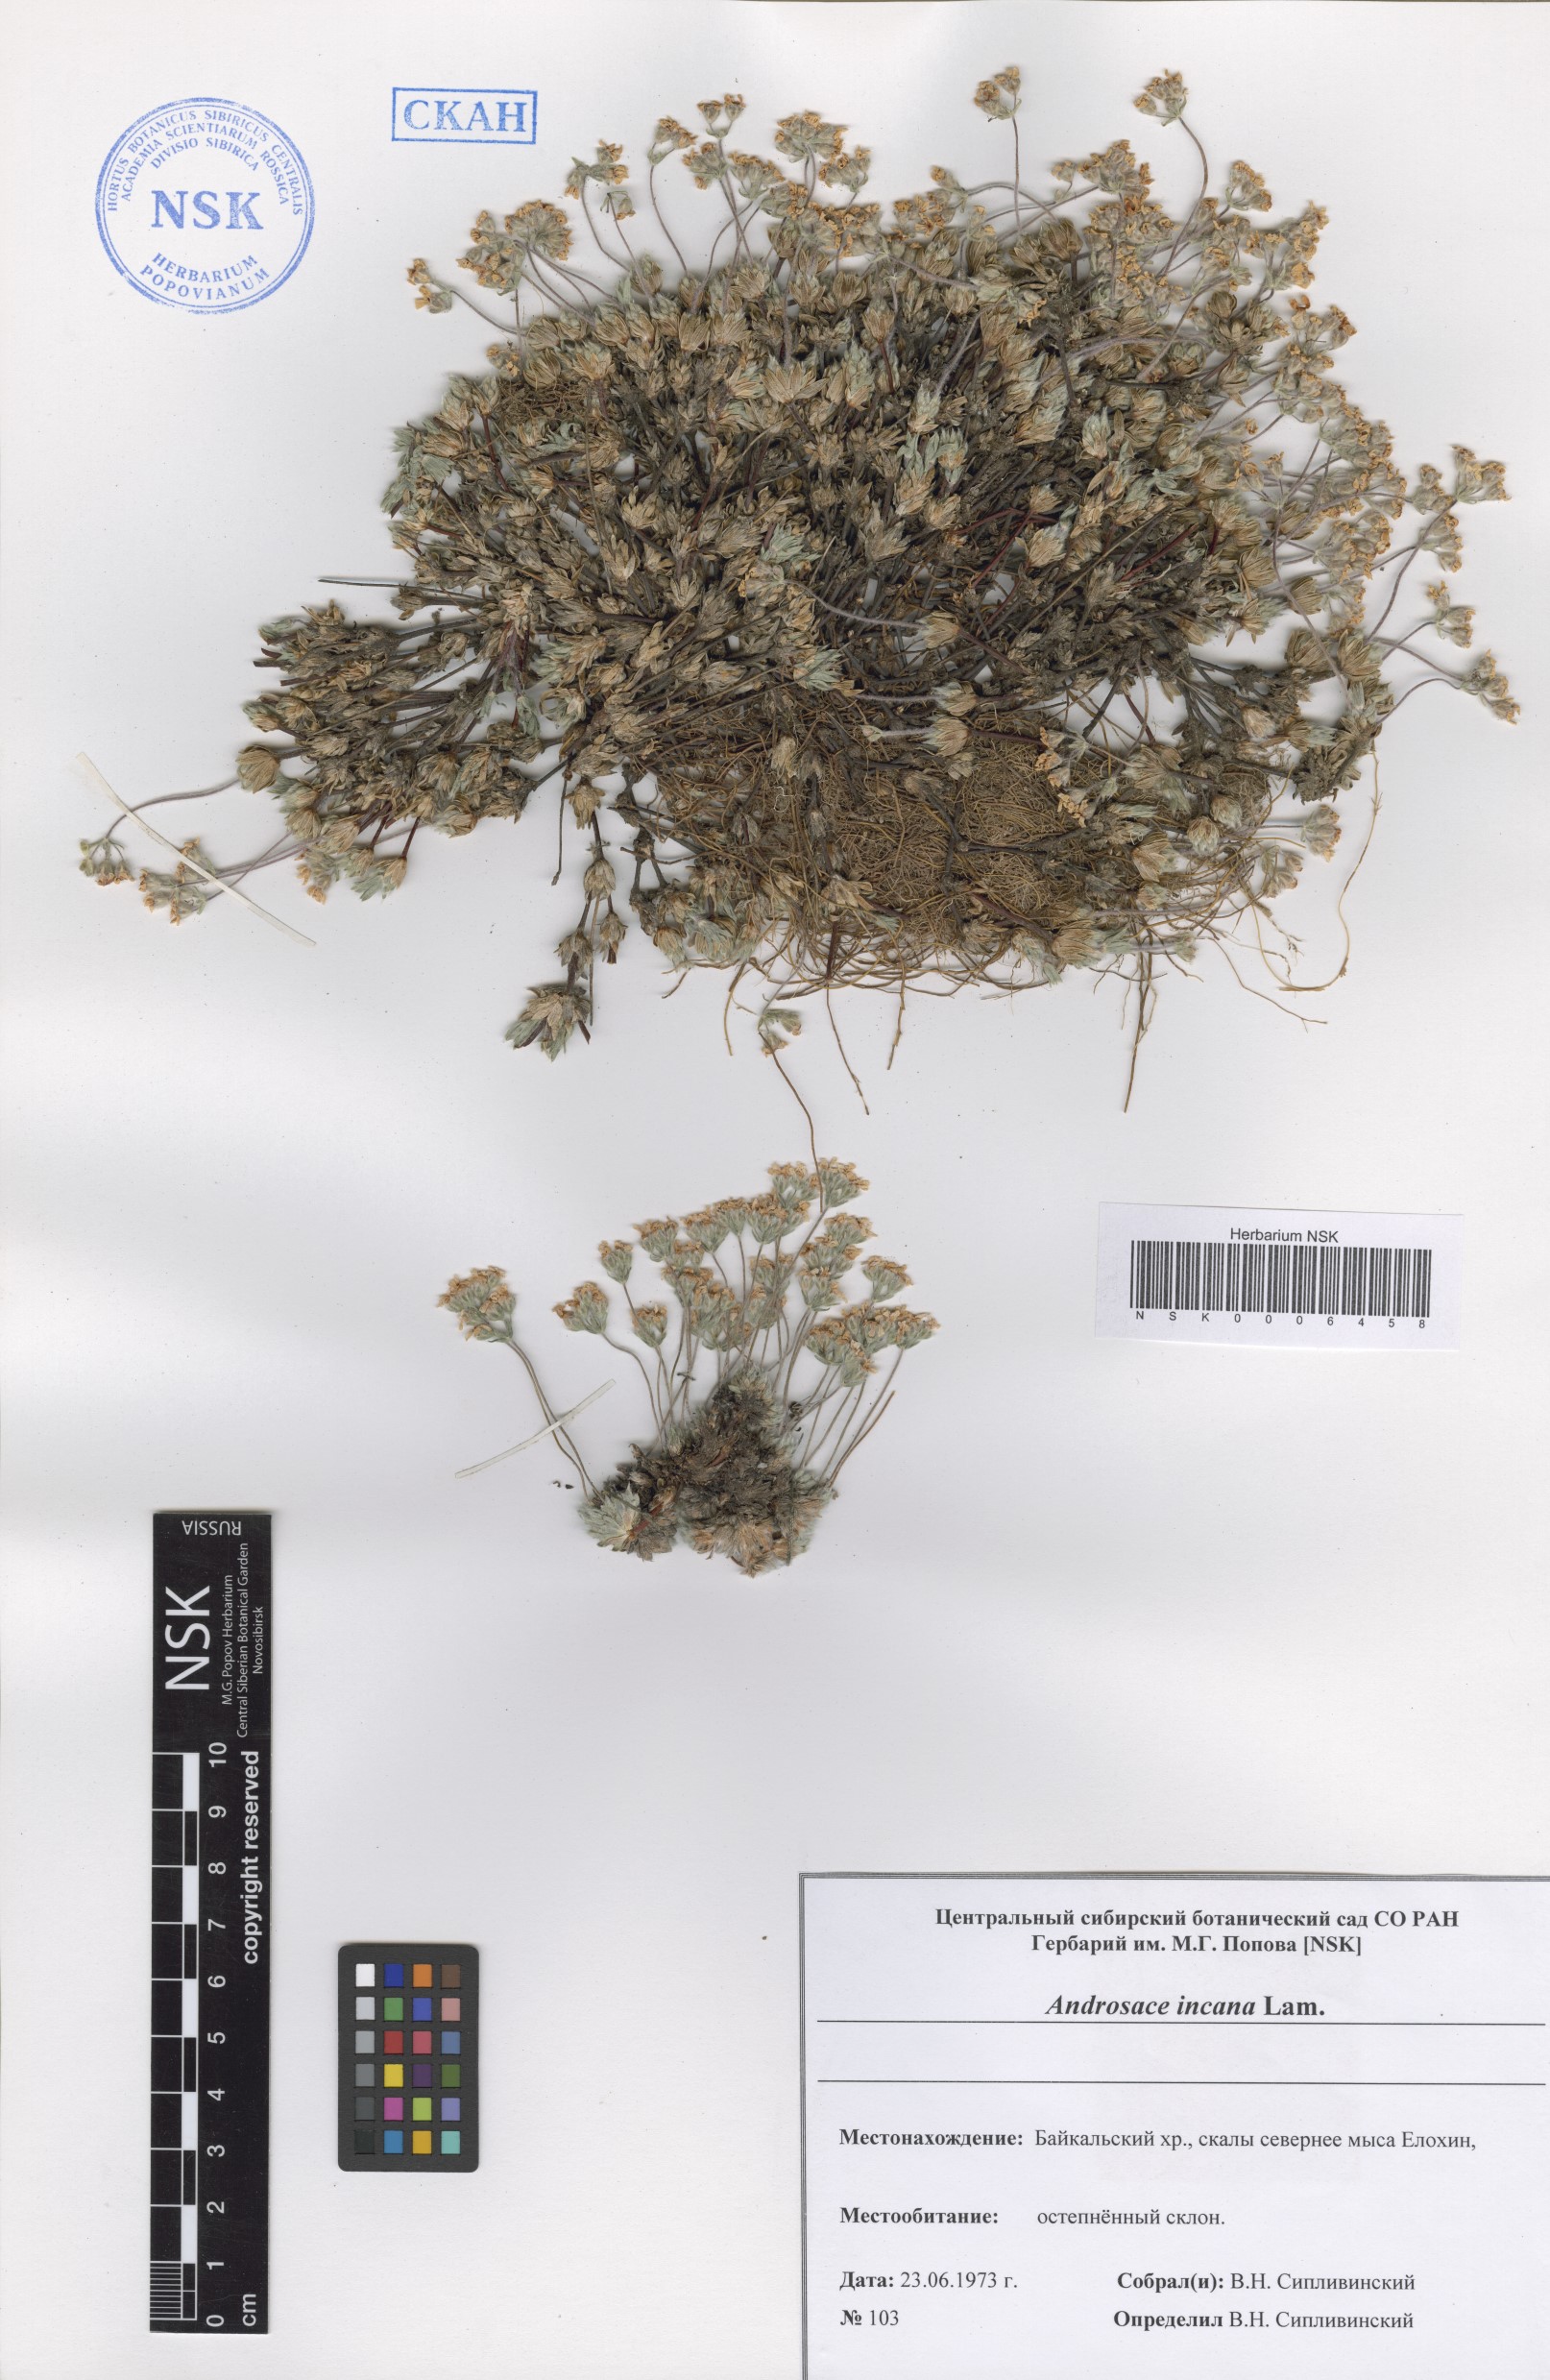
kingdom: Plantae
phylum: Tracheophyta
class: Magnoliopsida
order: Ericales
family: Primulaceae
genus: Androsace
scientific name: Androsace incana
